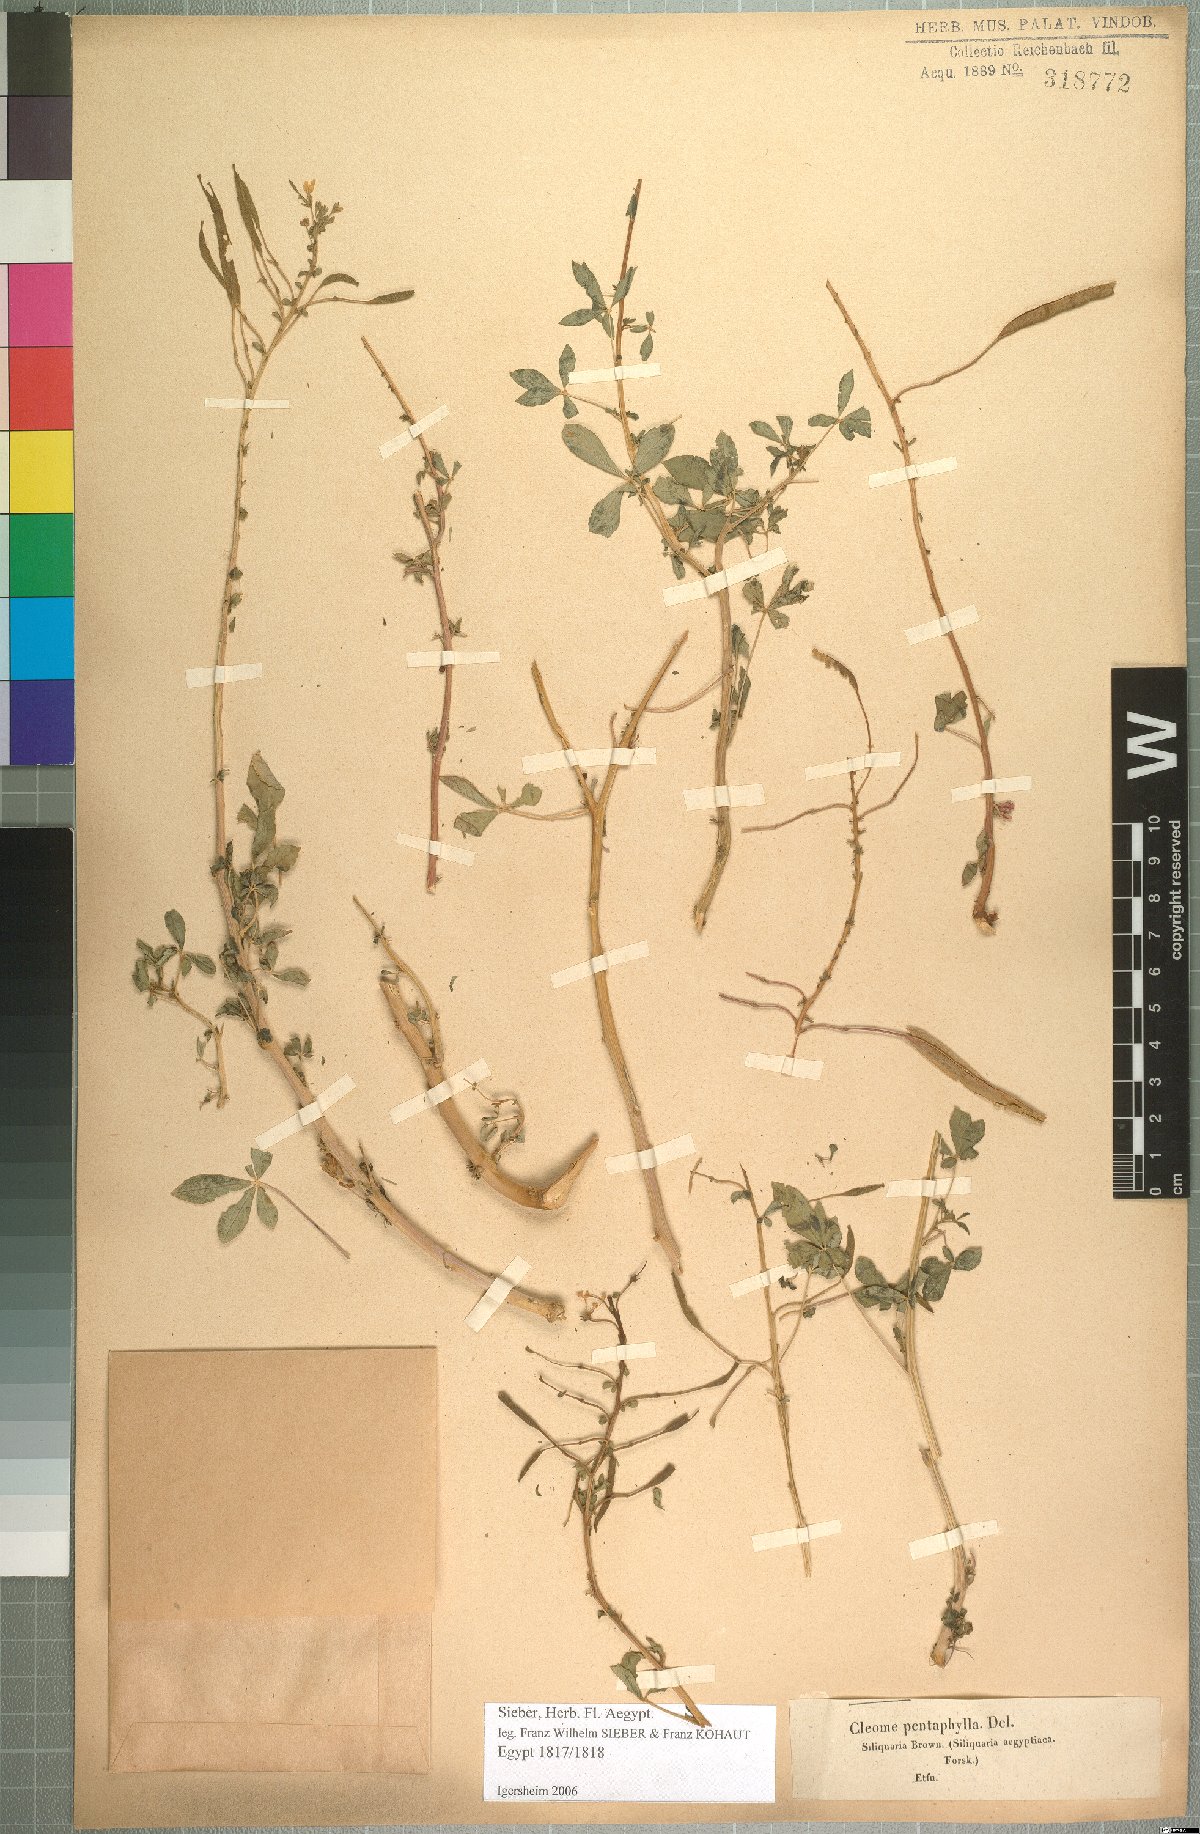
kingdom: Plantae
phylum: Tracheophyta
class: Magnoliopsida
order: Brassicales
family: Cleomaceae
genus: Gynandropsis
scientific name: Gynandropsis gynandra
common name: Spiderwisp
